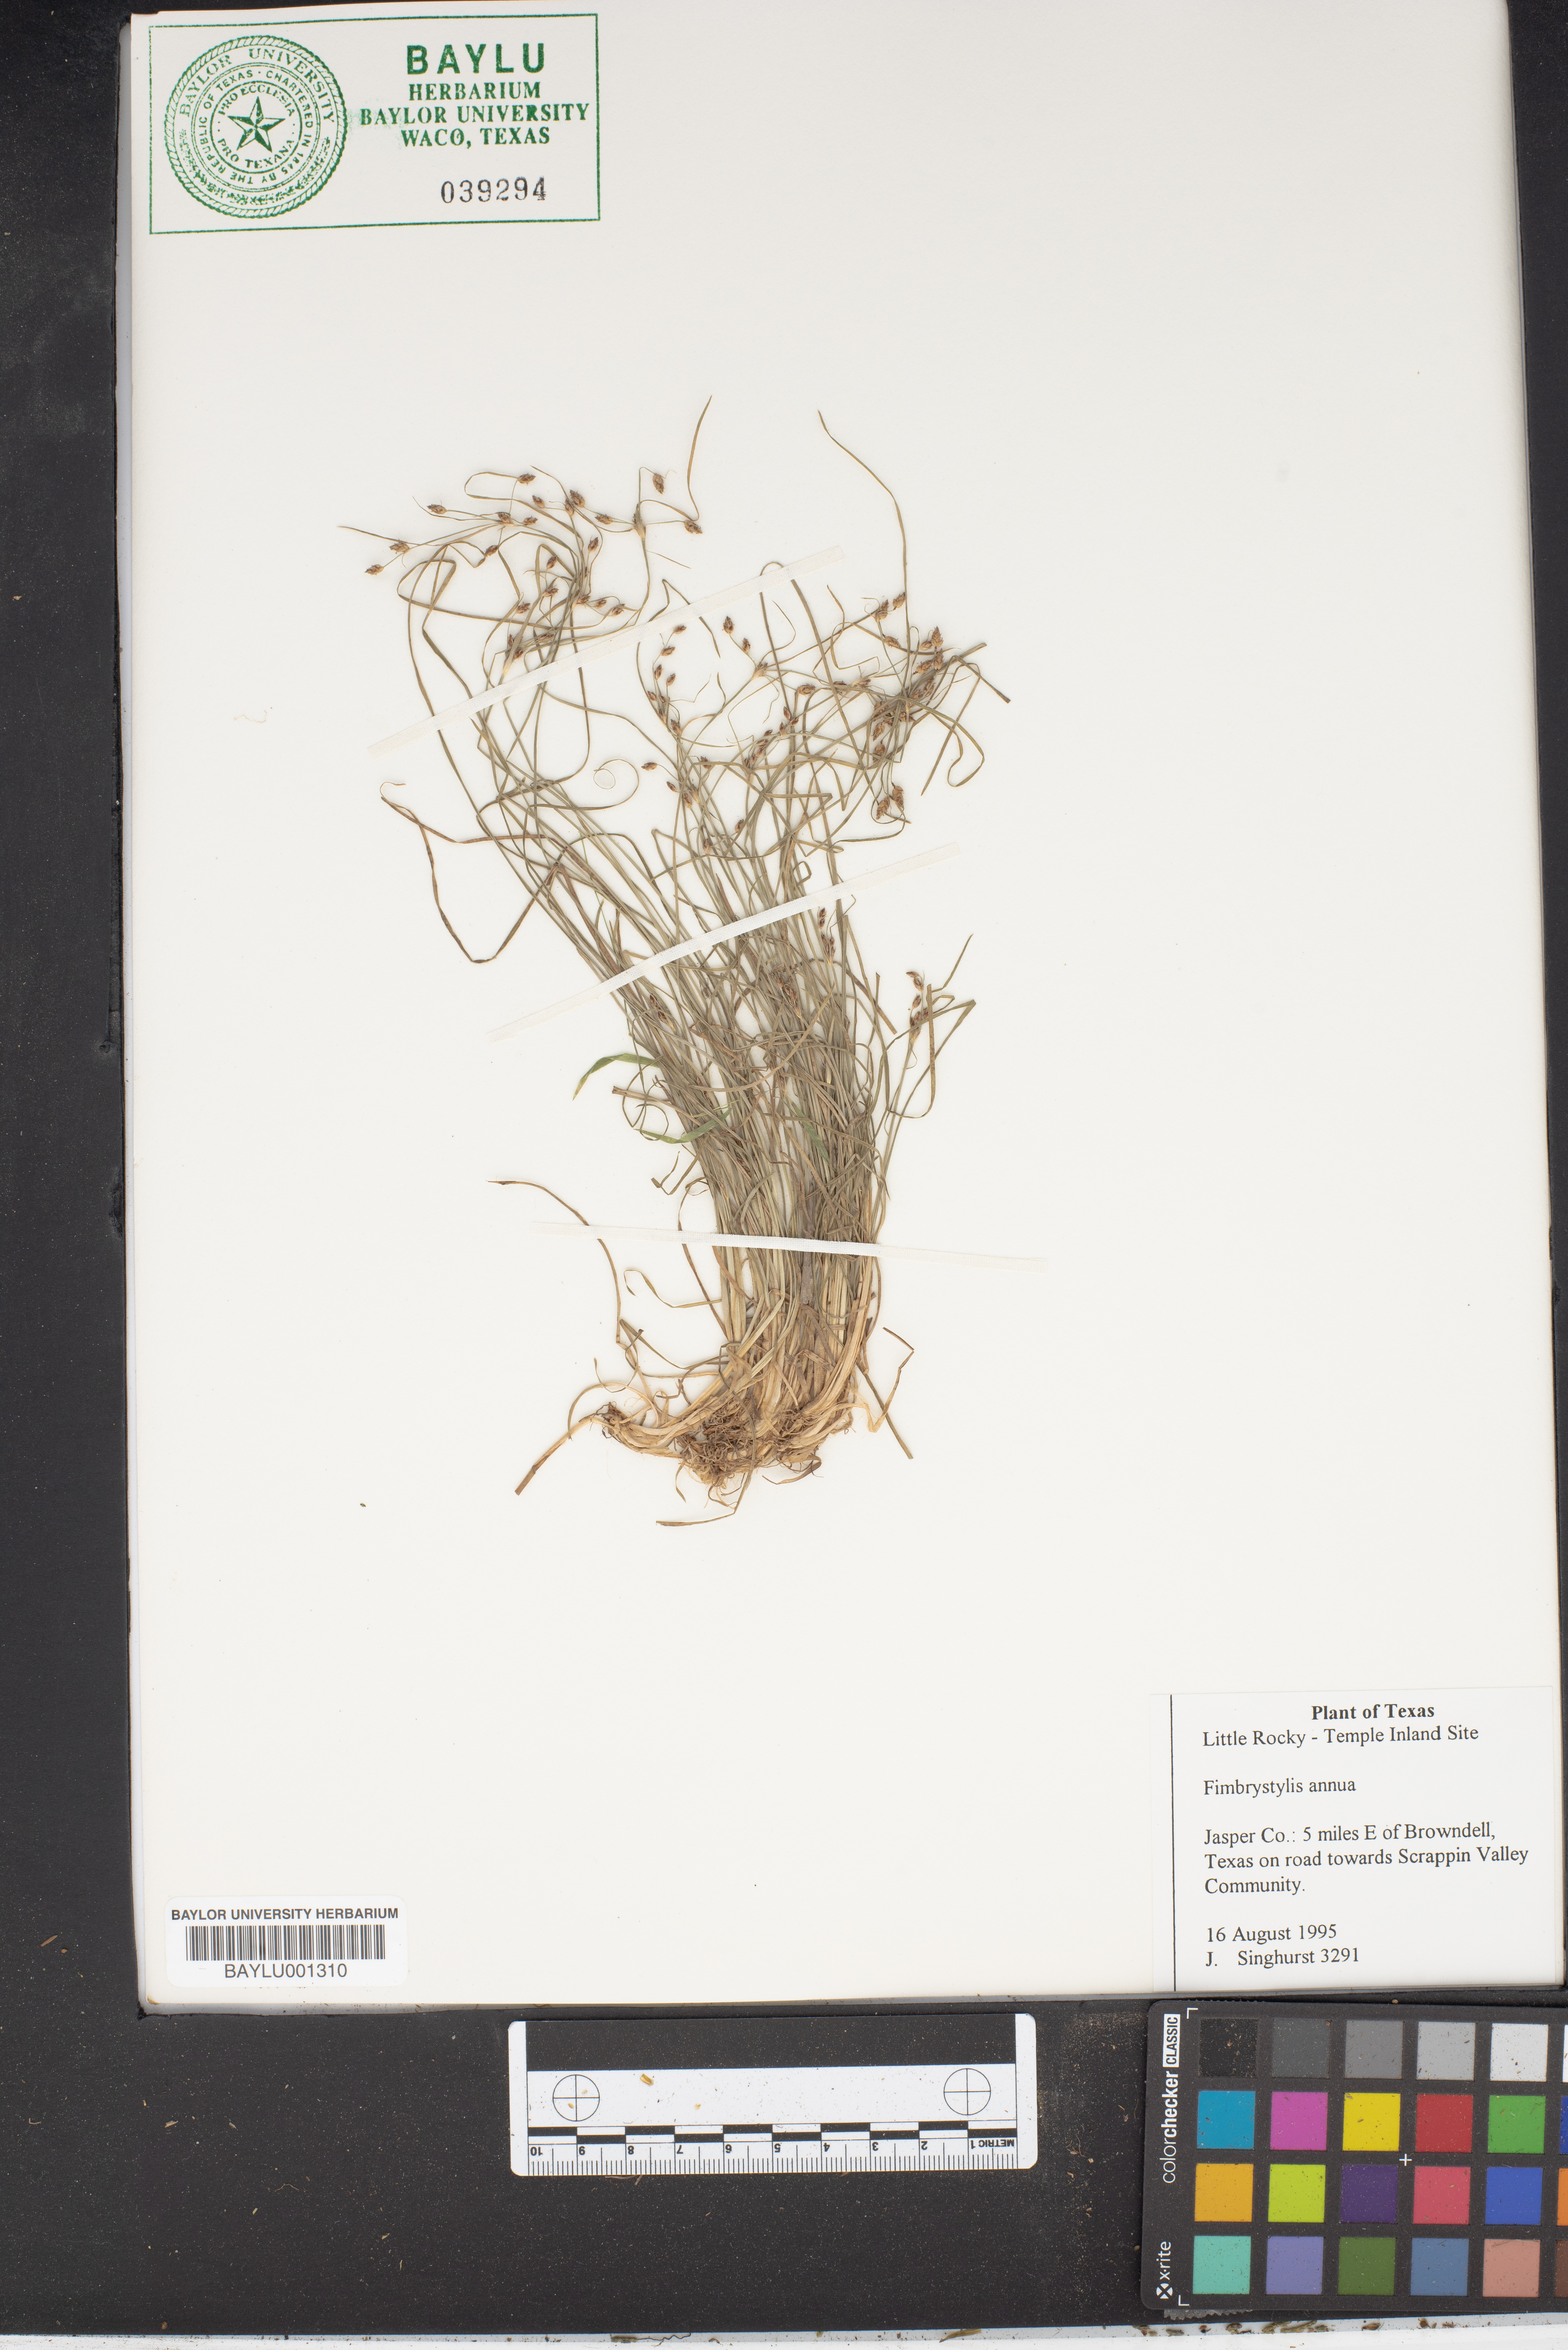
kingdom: Plantae
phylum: Tracheophyta
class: Liliopsida
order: Poales
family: Cyperaceae
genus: Fimbristylis
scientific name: Fimbristylis dichotoma
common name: Forked fimbry
